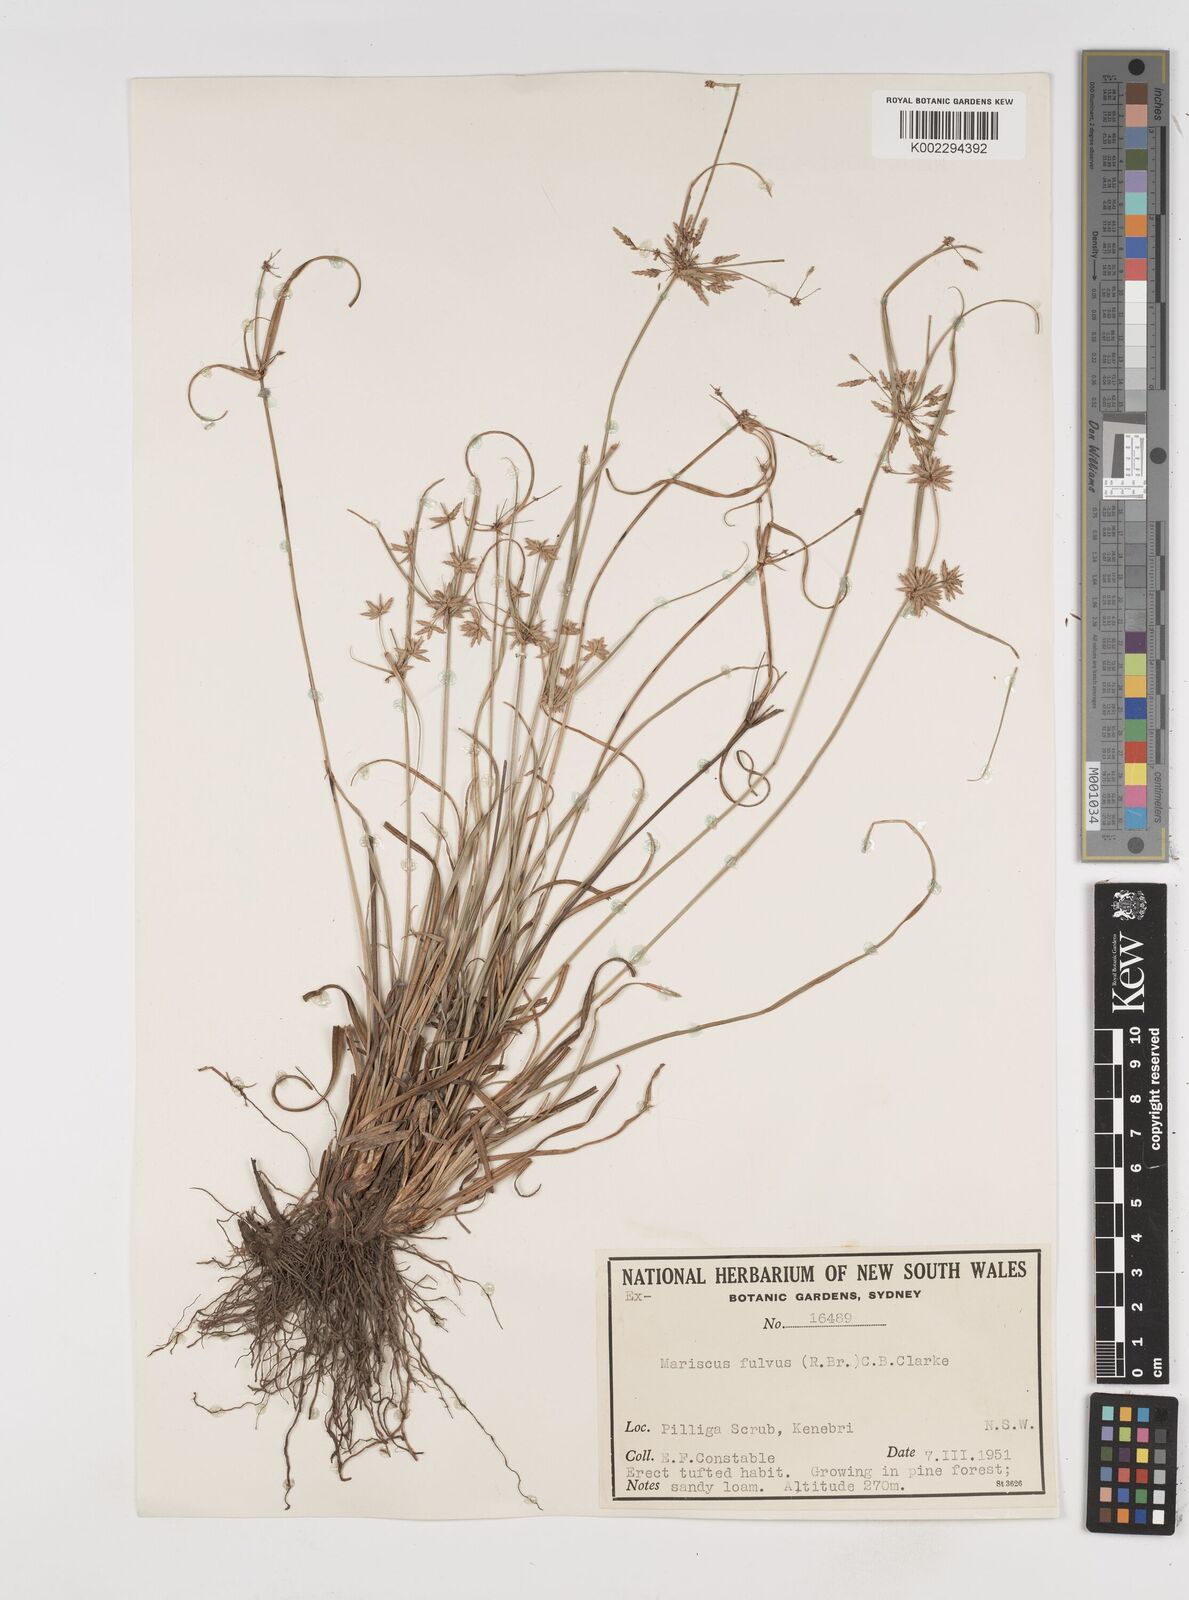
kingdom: Plantae
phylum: Tracheophyta
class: Liliopsida
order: Poales
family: Cyperaceae
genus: Cyperus
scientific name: Cyperus fulvus
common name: Sticky sedge
